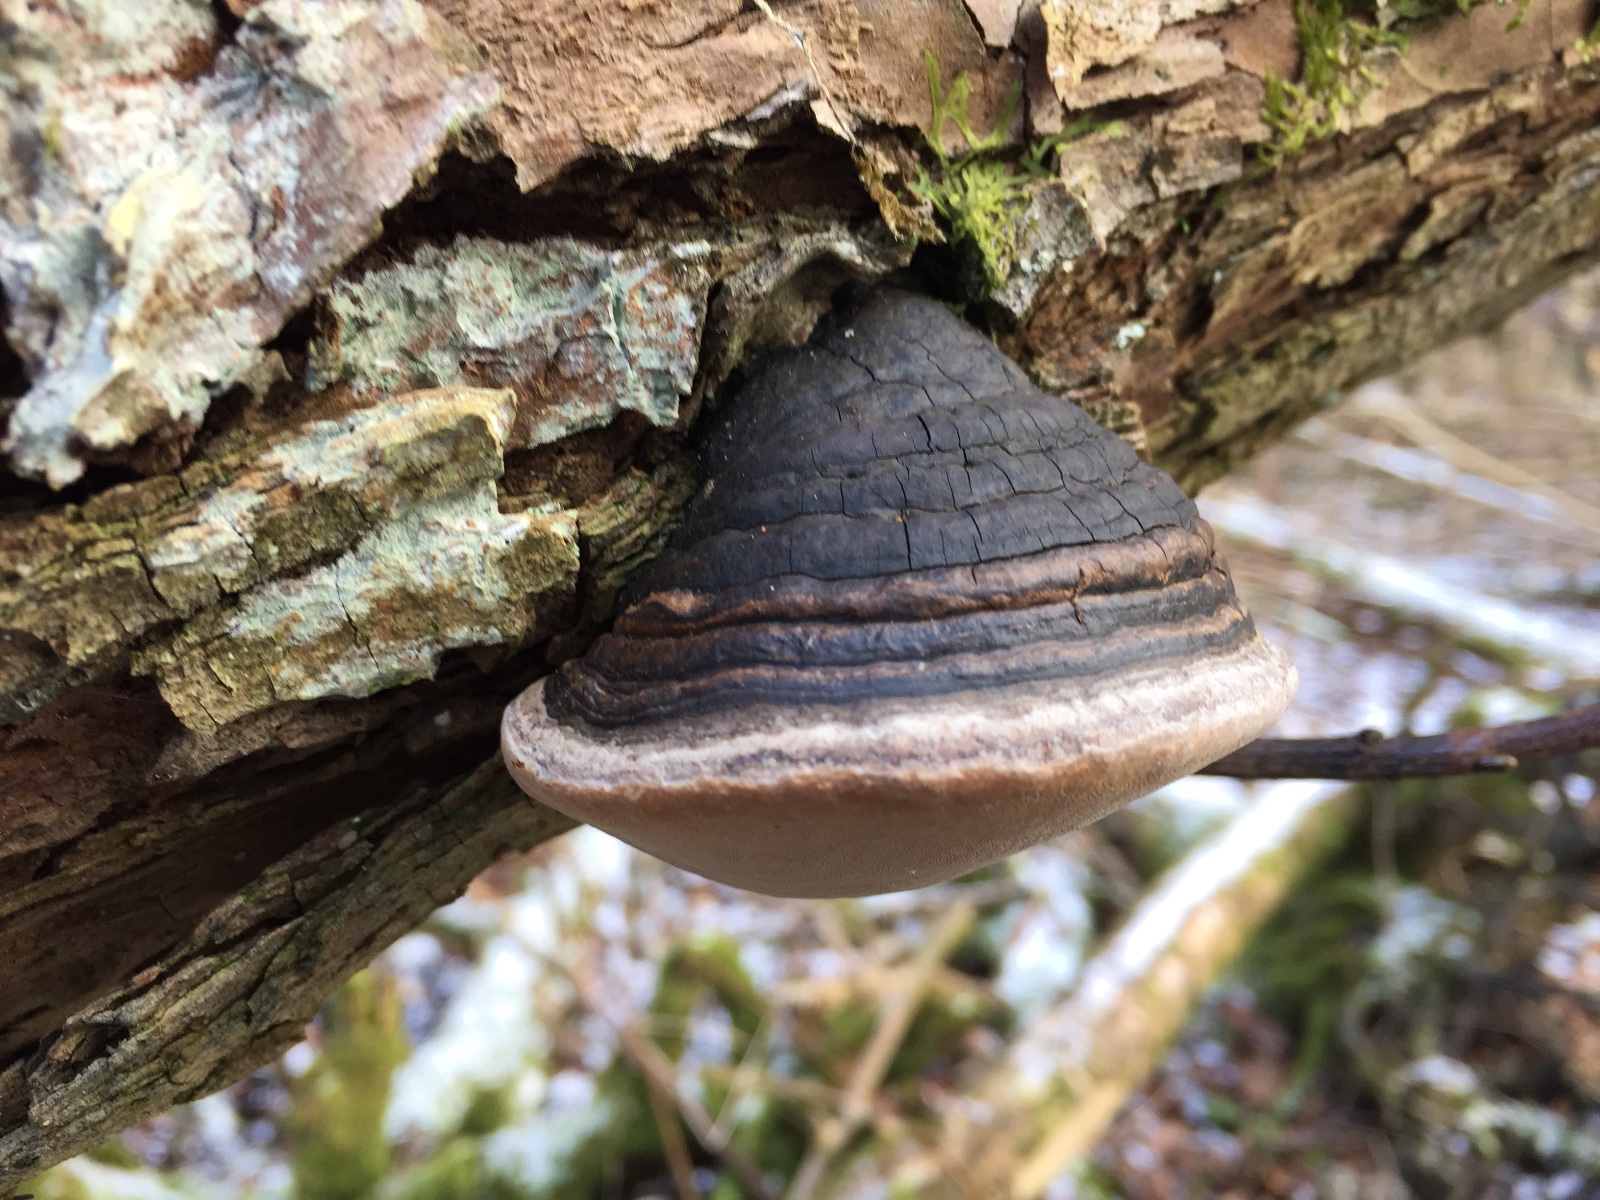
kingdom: Fungi
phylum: Basidiomycota
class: Agaricomycetes
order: Hymenochaetales
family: Hymenochaetaceae
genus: Phellinus
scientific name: Phellinus igniarius
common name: almindelig ildporesvamp
